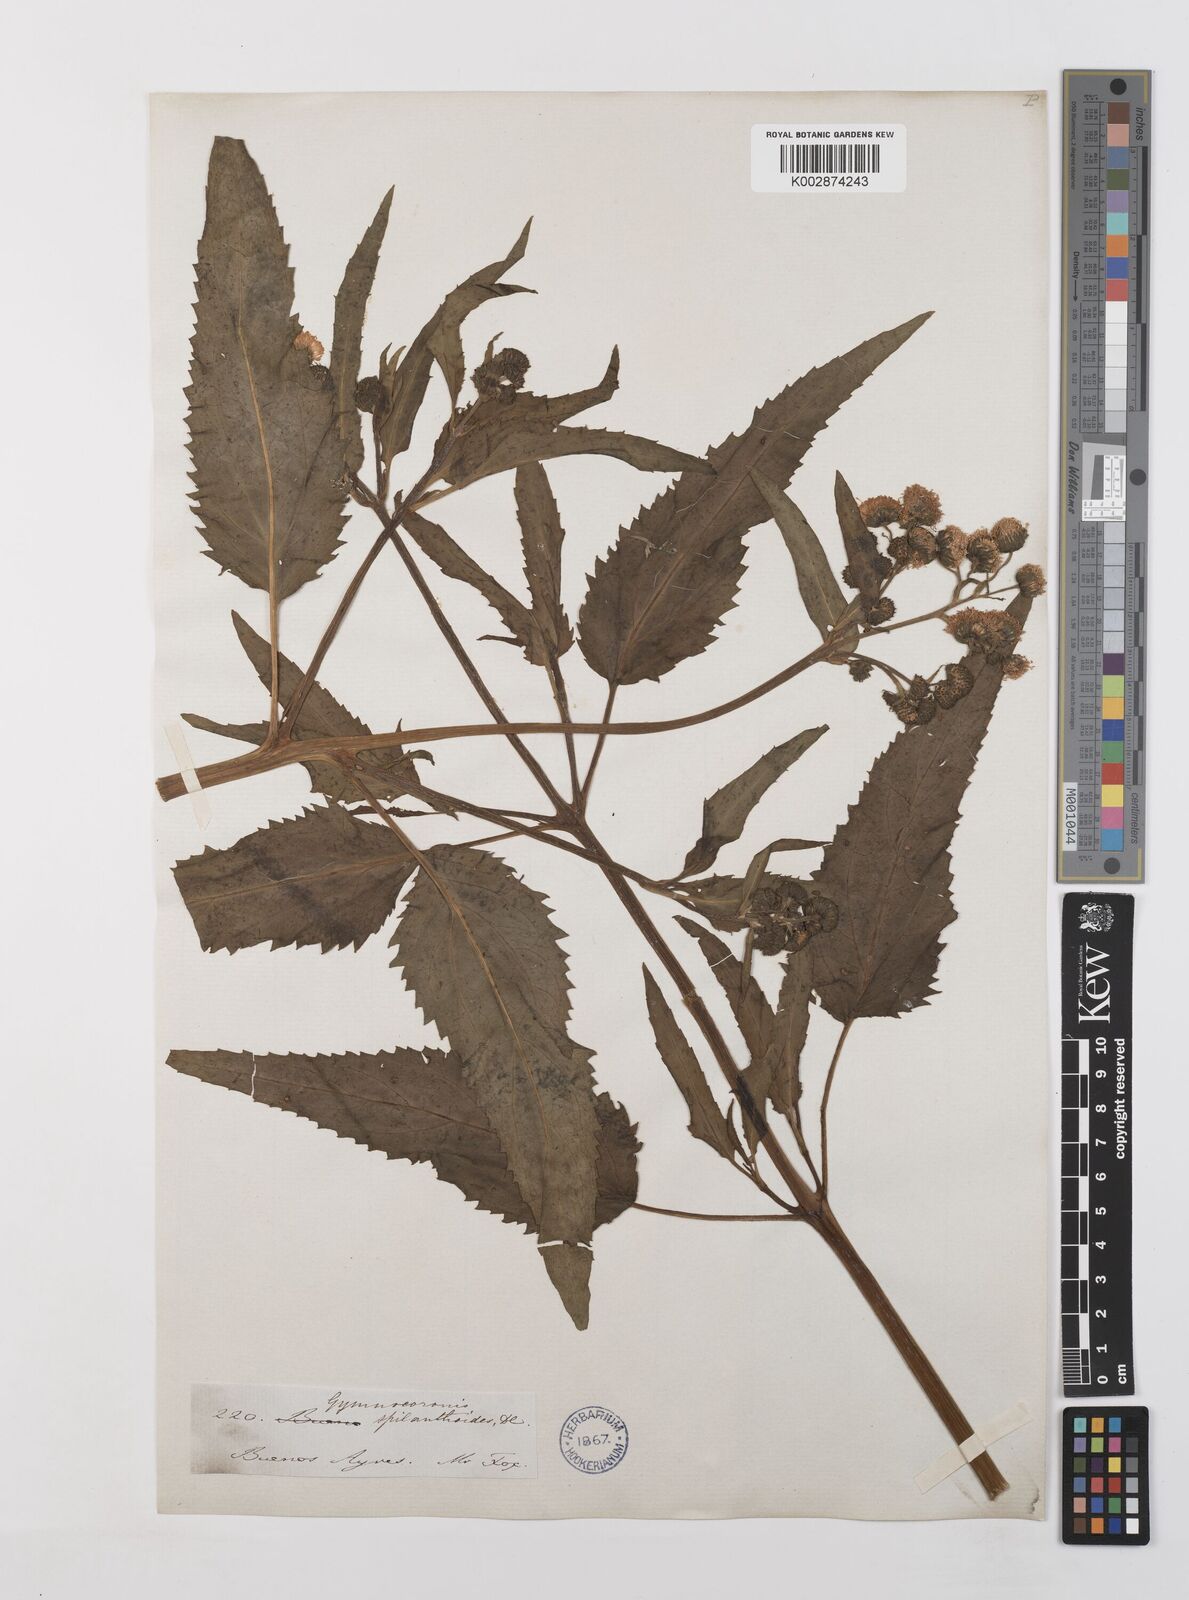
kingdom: Plantae
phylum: Tracheophyta
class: Magnoliopsida
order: Asterales
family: Asteraceae
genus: Gymnocoronis
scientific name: Gymnocoronis spilanthoides
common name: Senegal teaplant
